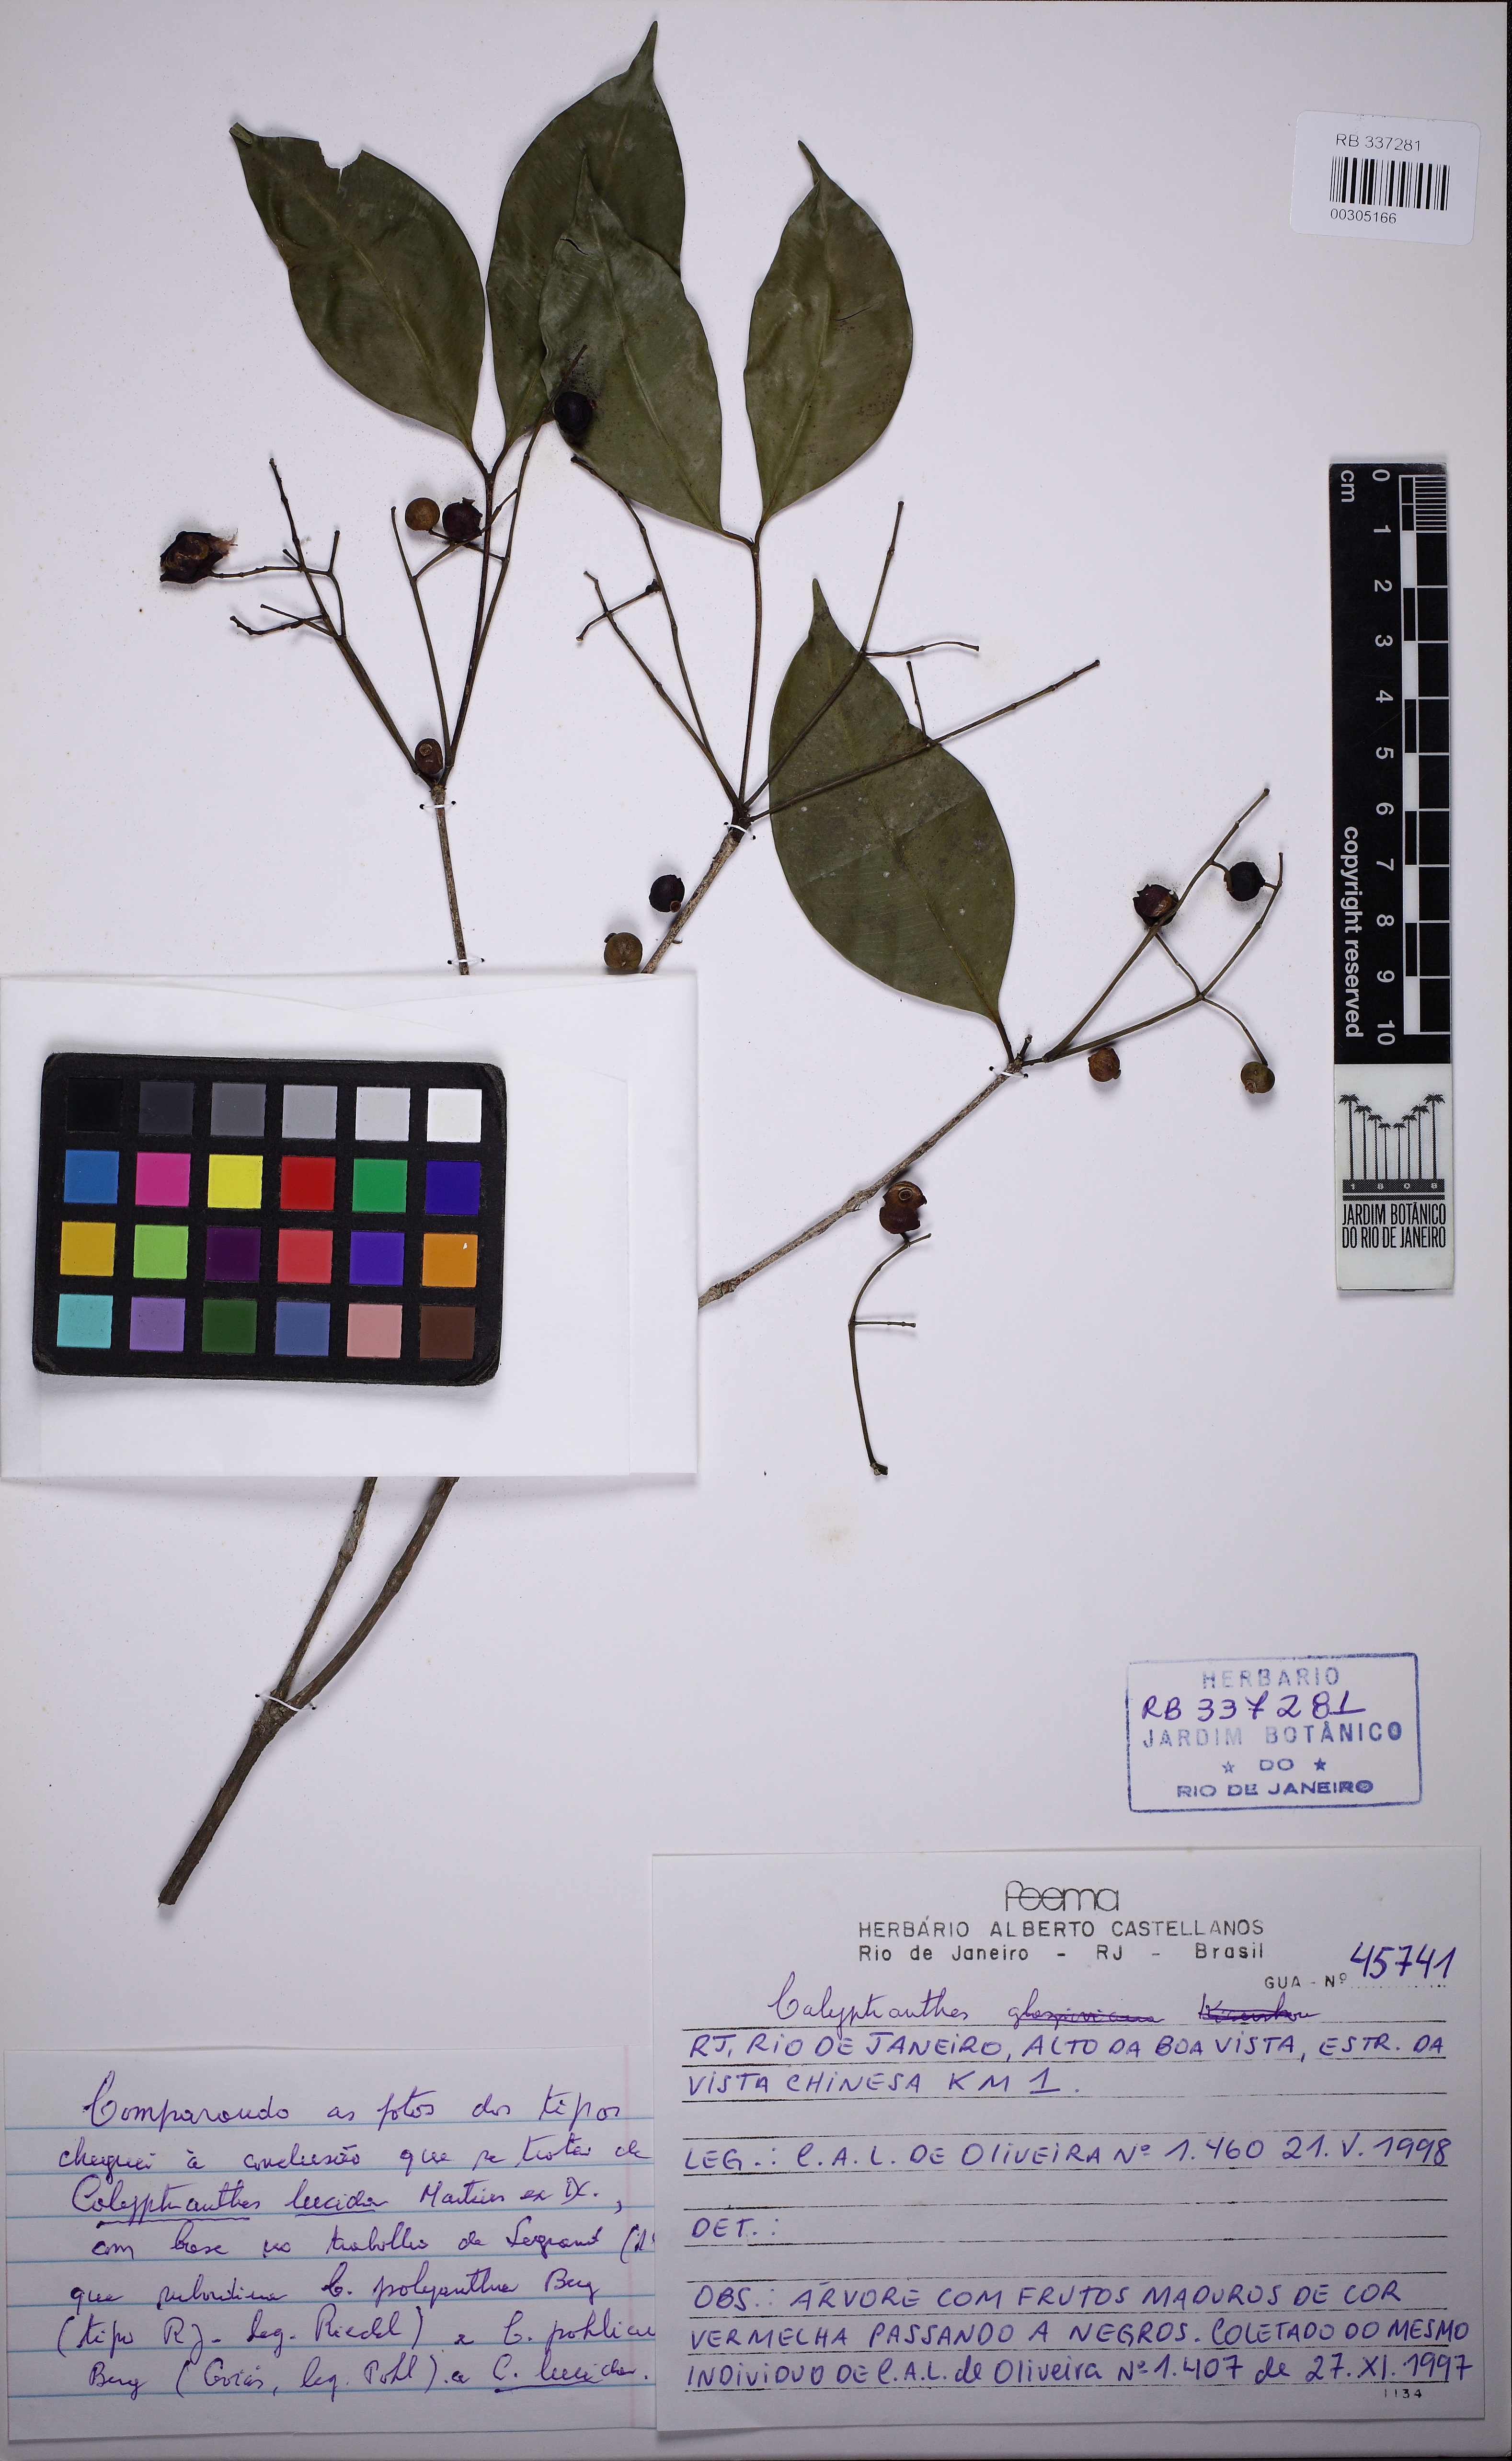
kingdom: Plantae
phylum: Tracheophyta
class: Magnoliopsida
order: Myrtales
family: Myrtaceae
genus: Myrcia
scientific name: Myrcia neolucida
